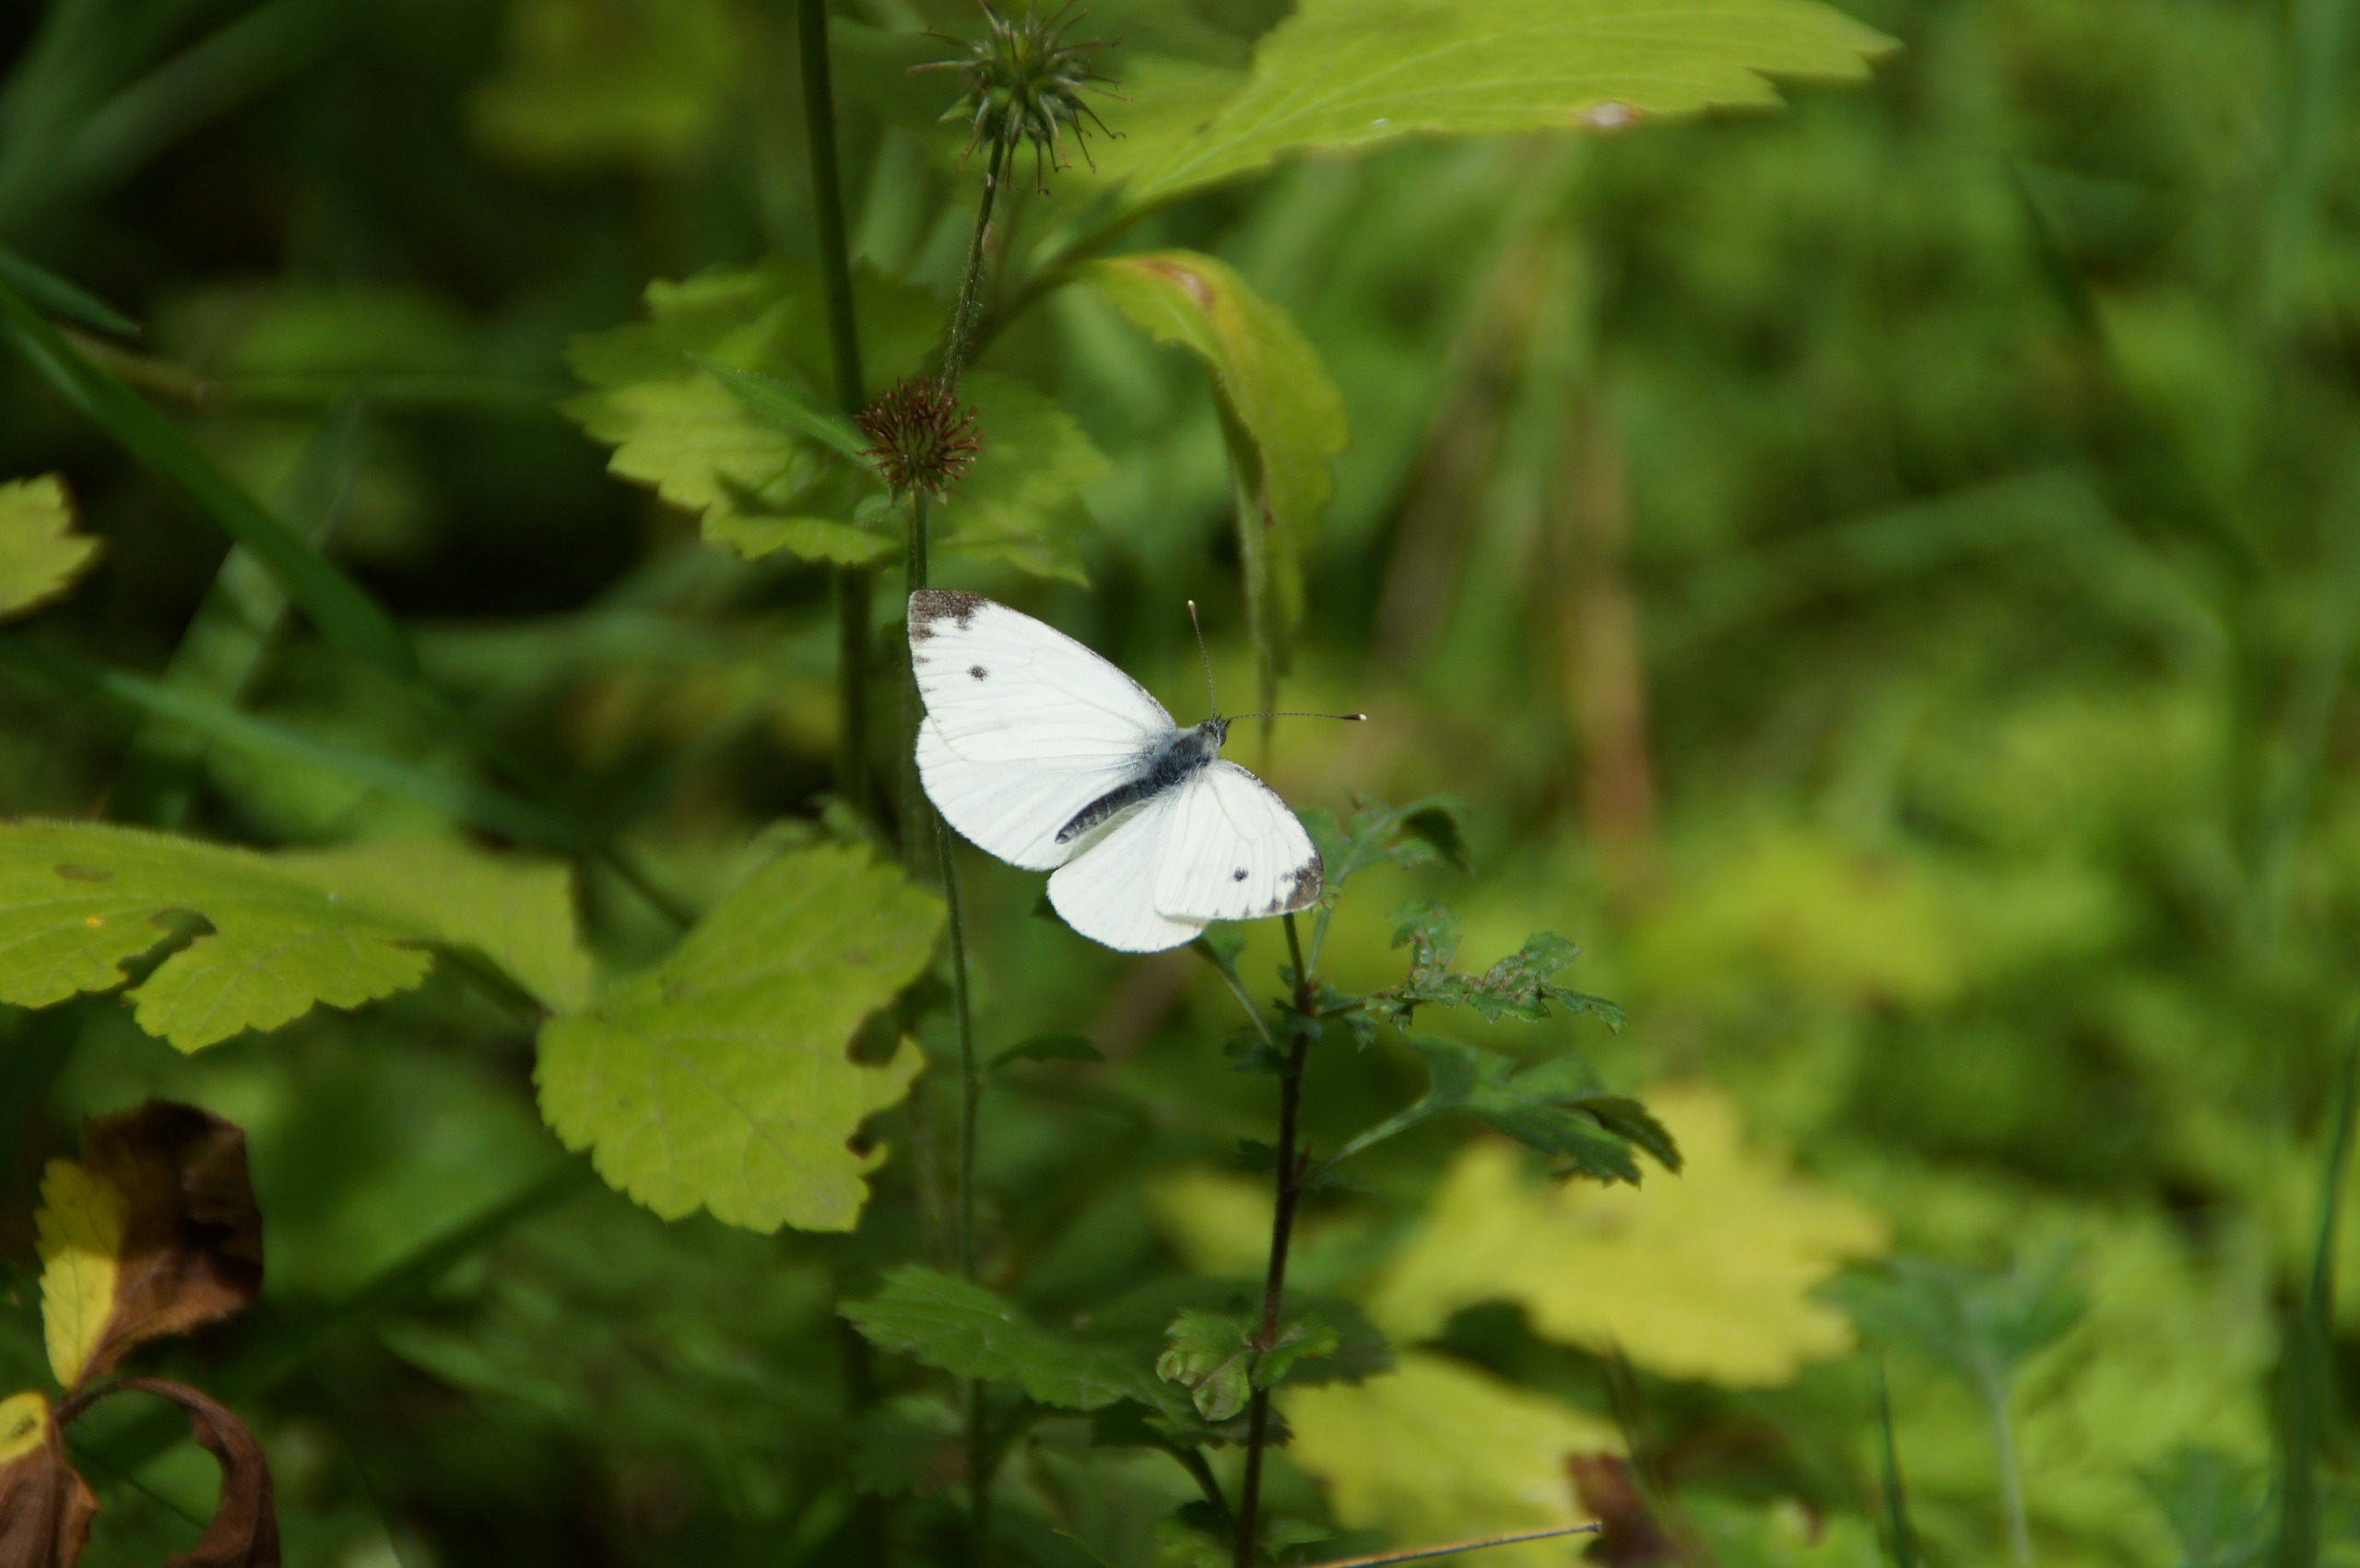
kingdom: Animalia
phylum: Arthropoda
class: Insecta
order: Lepidoptera
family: Pieridae
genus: Pieris
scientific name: Pieris napi
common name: Grønåret kålsommerfugl
